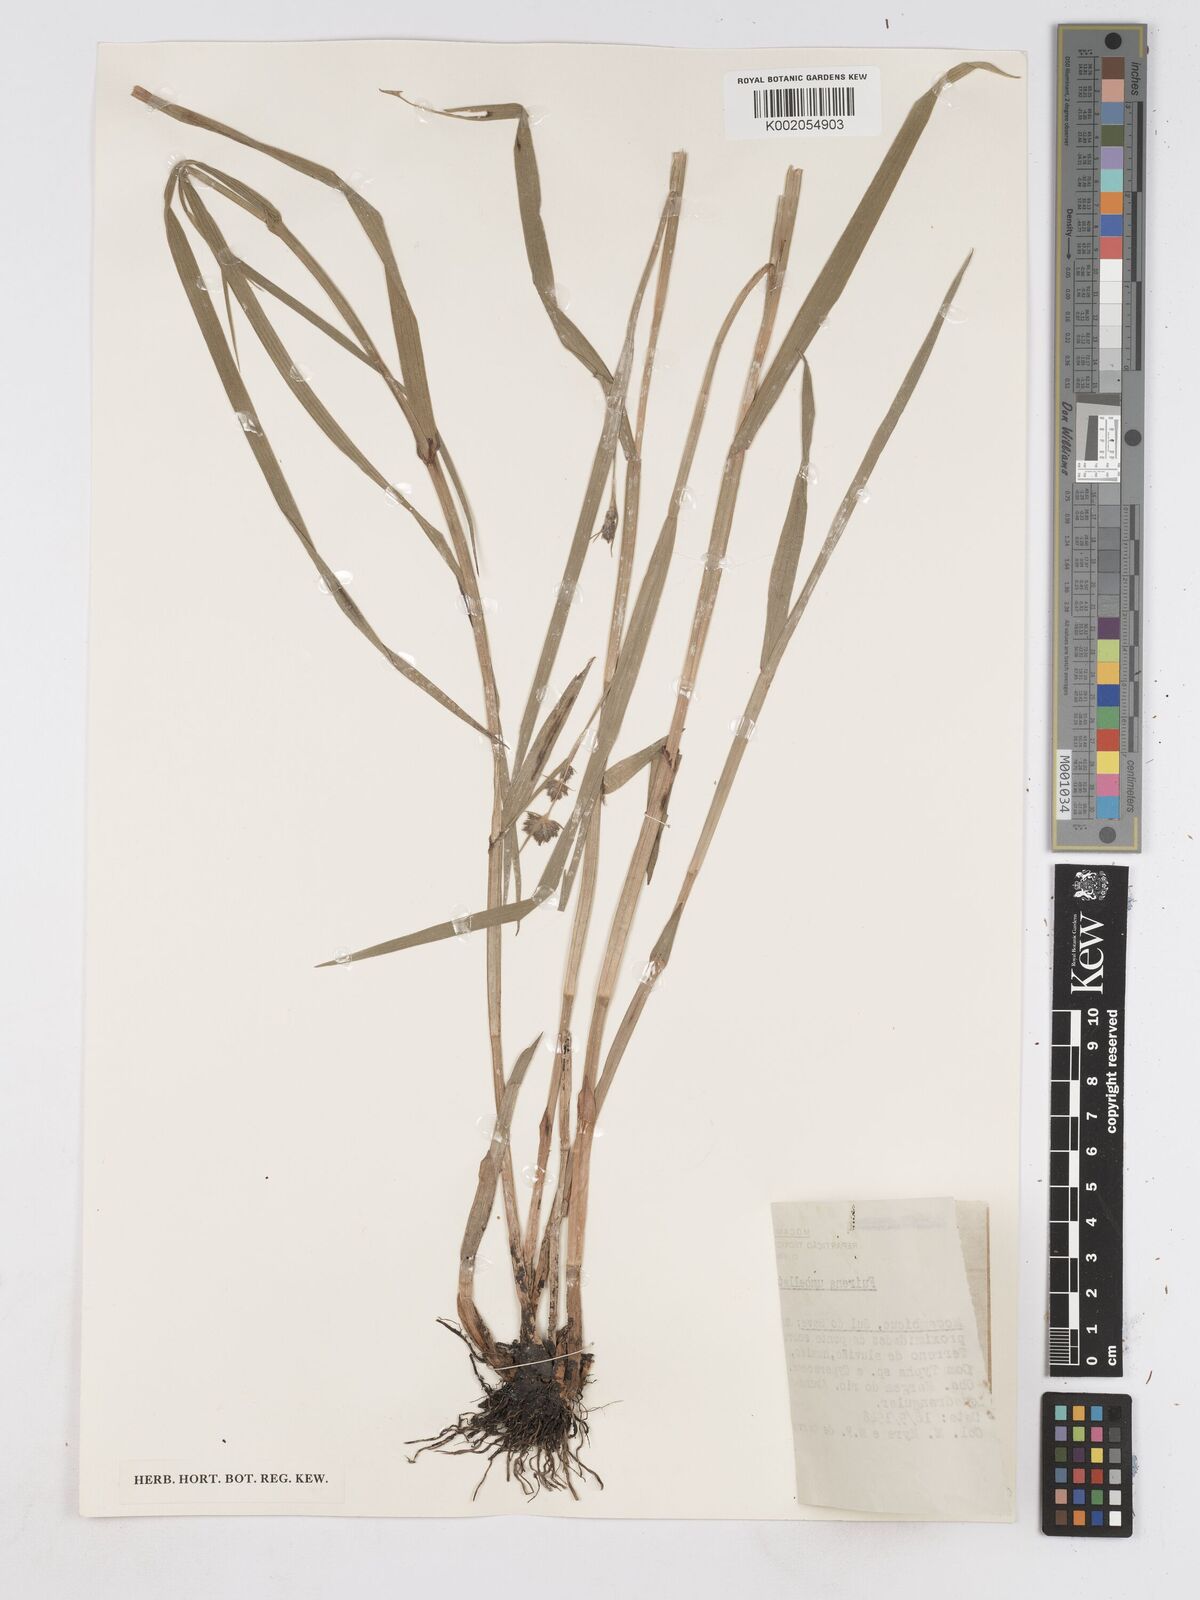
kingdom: Plantae
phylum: Tracheophyta
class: Liliopsida
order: Poales
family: Cyperaceae
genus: Fuirena
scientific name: Fuirena umbellata
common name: Yefen
